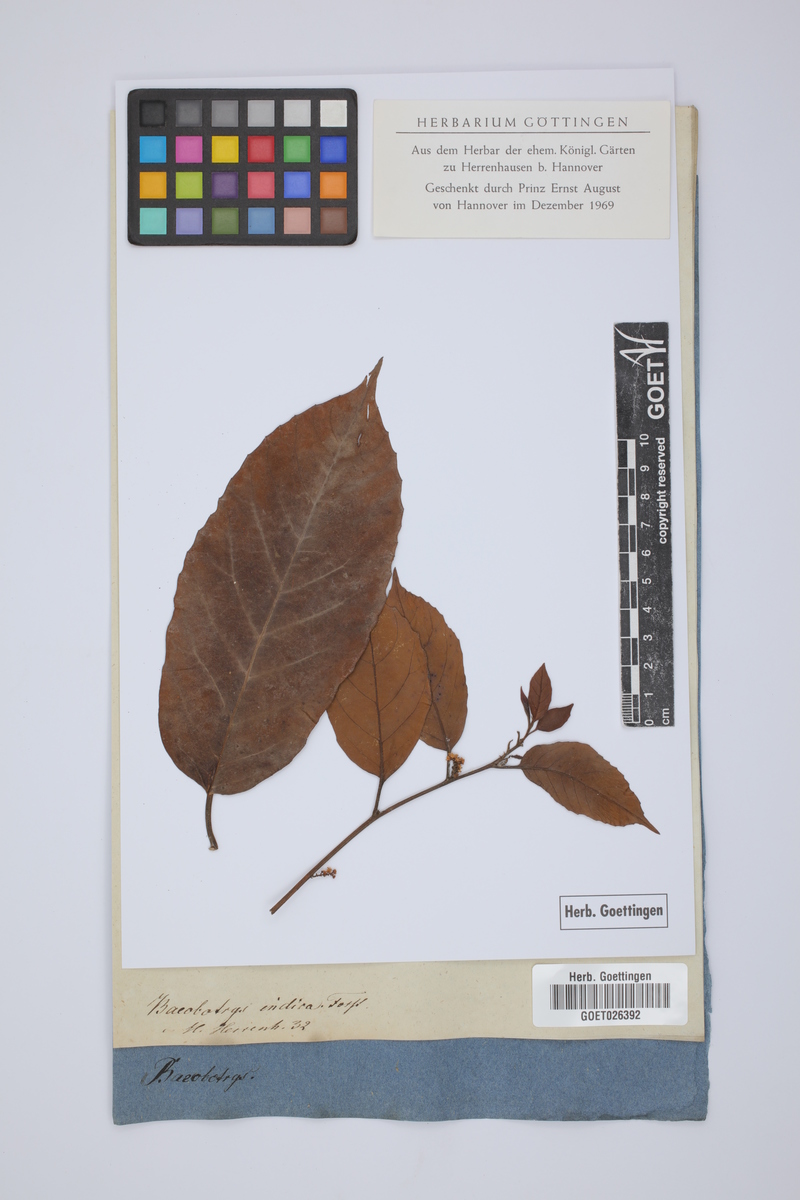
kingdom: Plantae
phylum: Tracheophyta
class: Magnoliopsida
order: Ericales
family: Primulaceae
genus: Maesa
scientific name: Maesa indica
